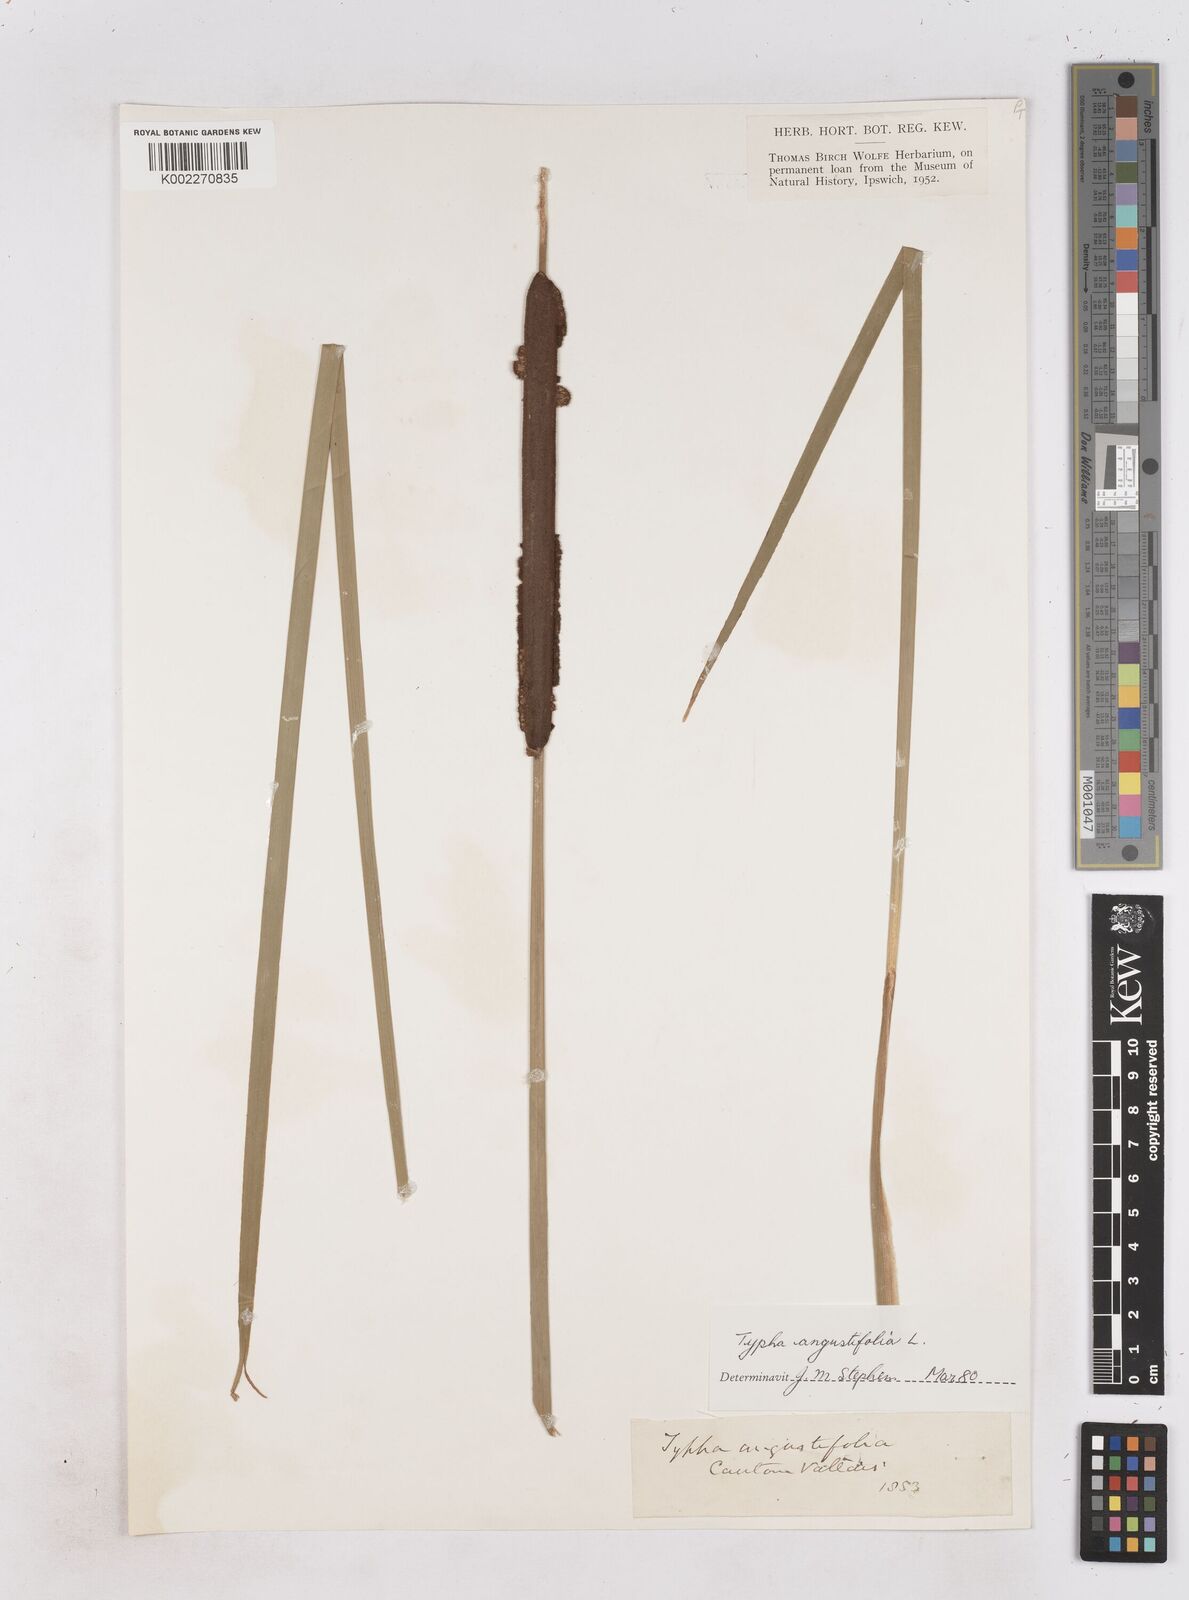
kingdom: Plantae
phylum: Tracheophyta
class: Liliopsida
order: Poales
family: Typhaceae
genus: Typha
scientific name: Typha angustifolia
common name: Lesser bulrush
